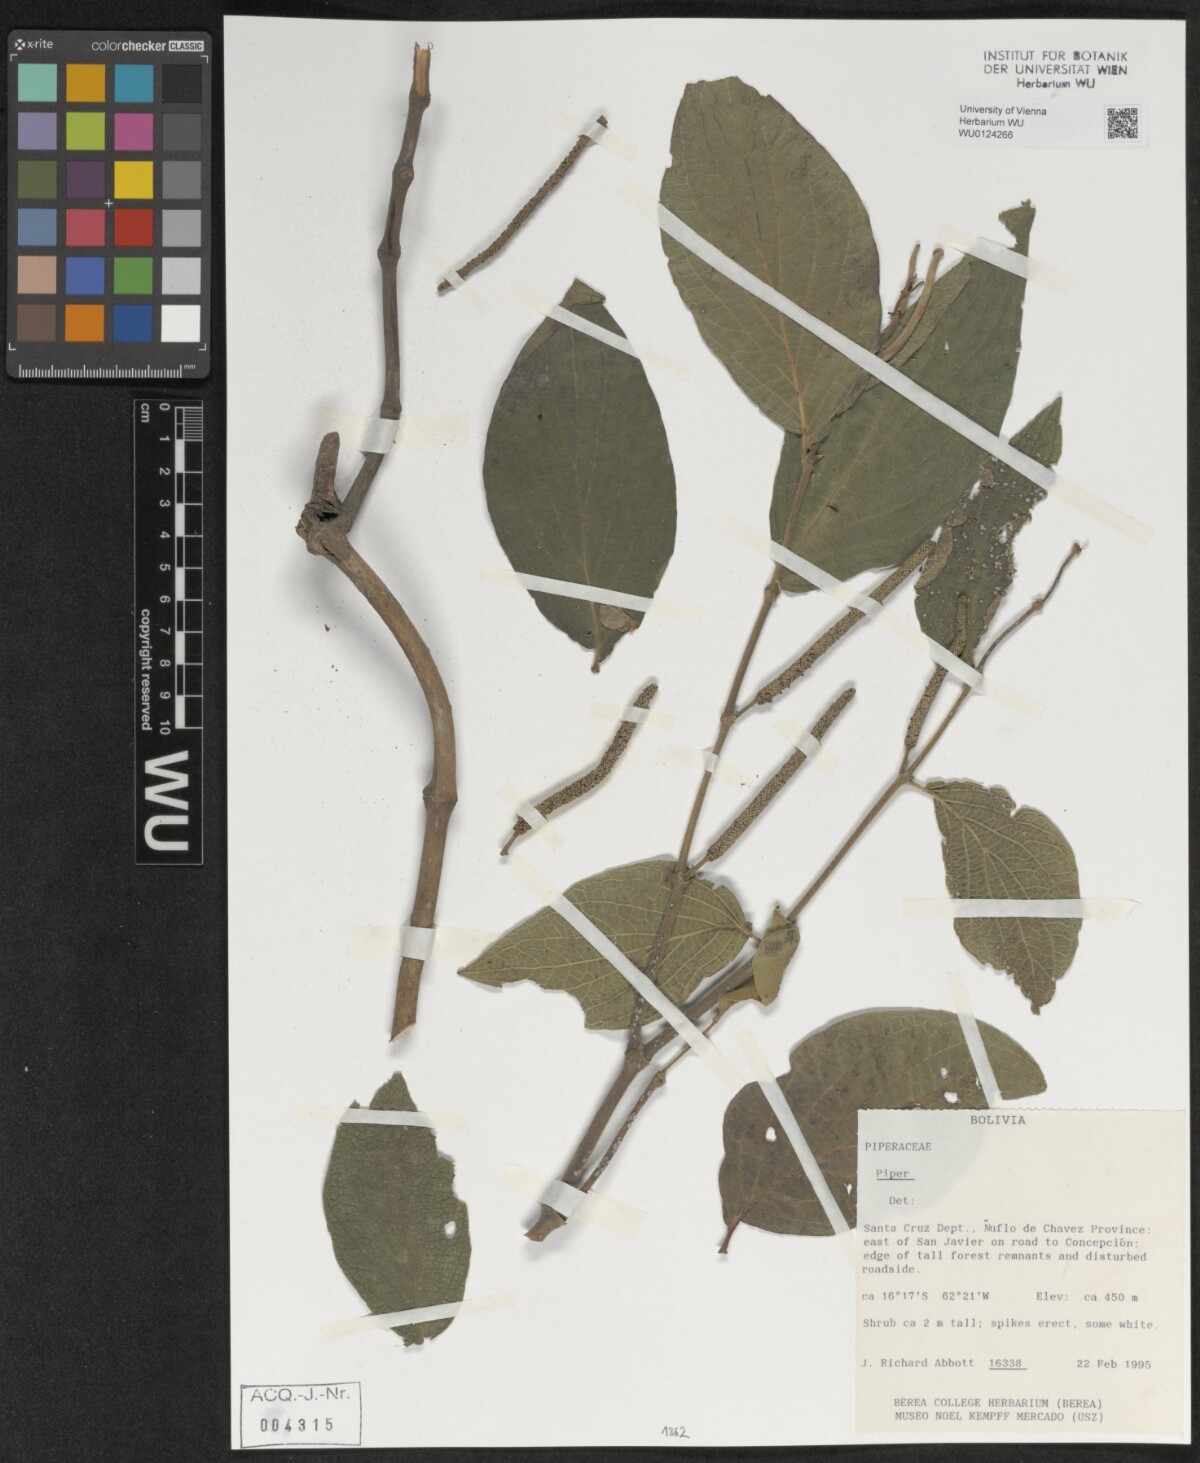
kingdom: Plantae
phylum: Tracheophyta
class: Magnoliopsida
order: Piperales
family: Piperaceae
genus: Piper
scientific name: Piper
